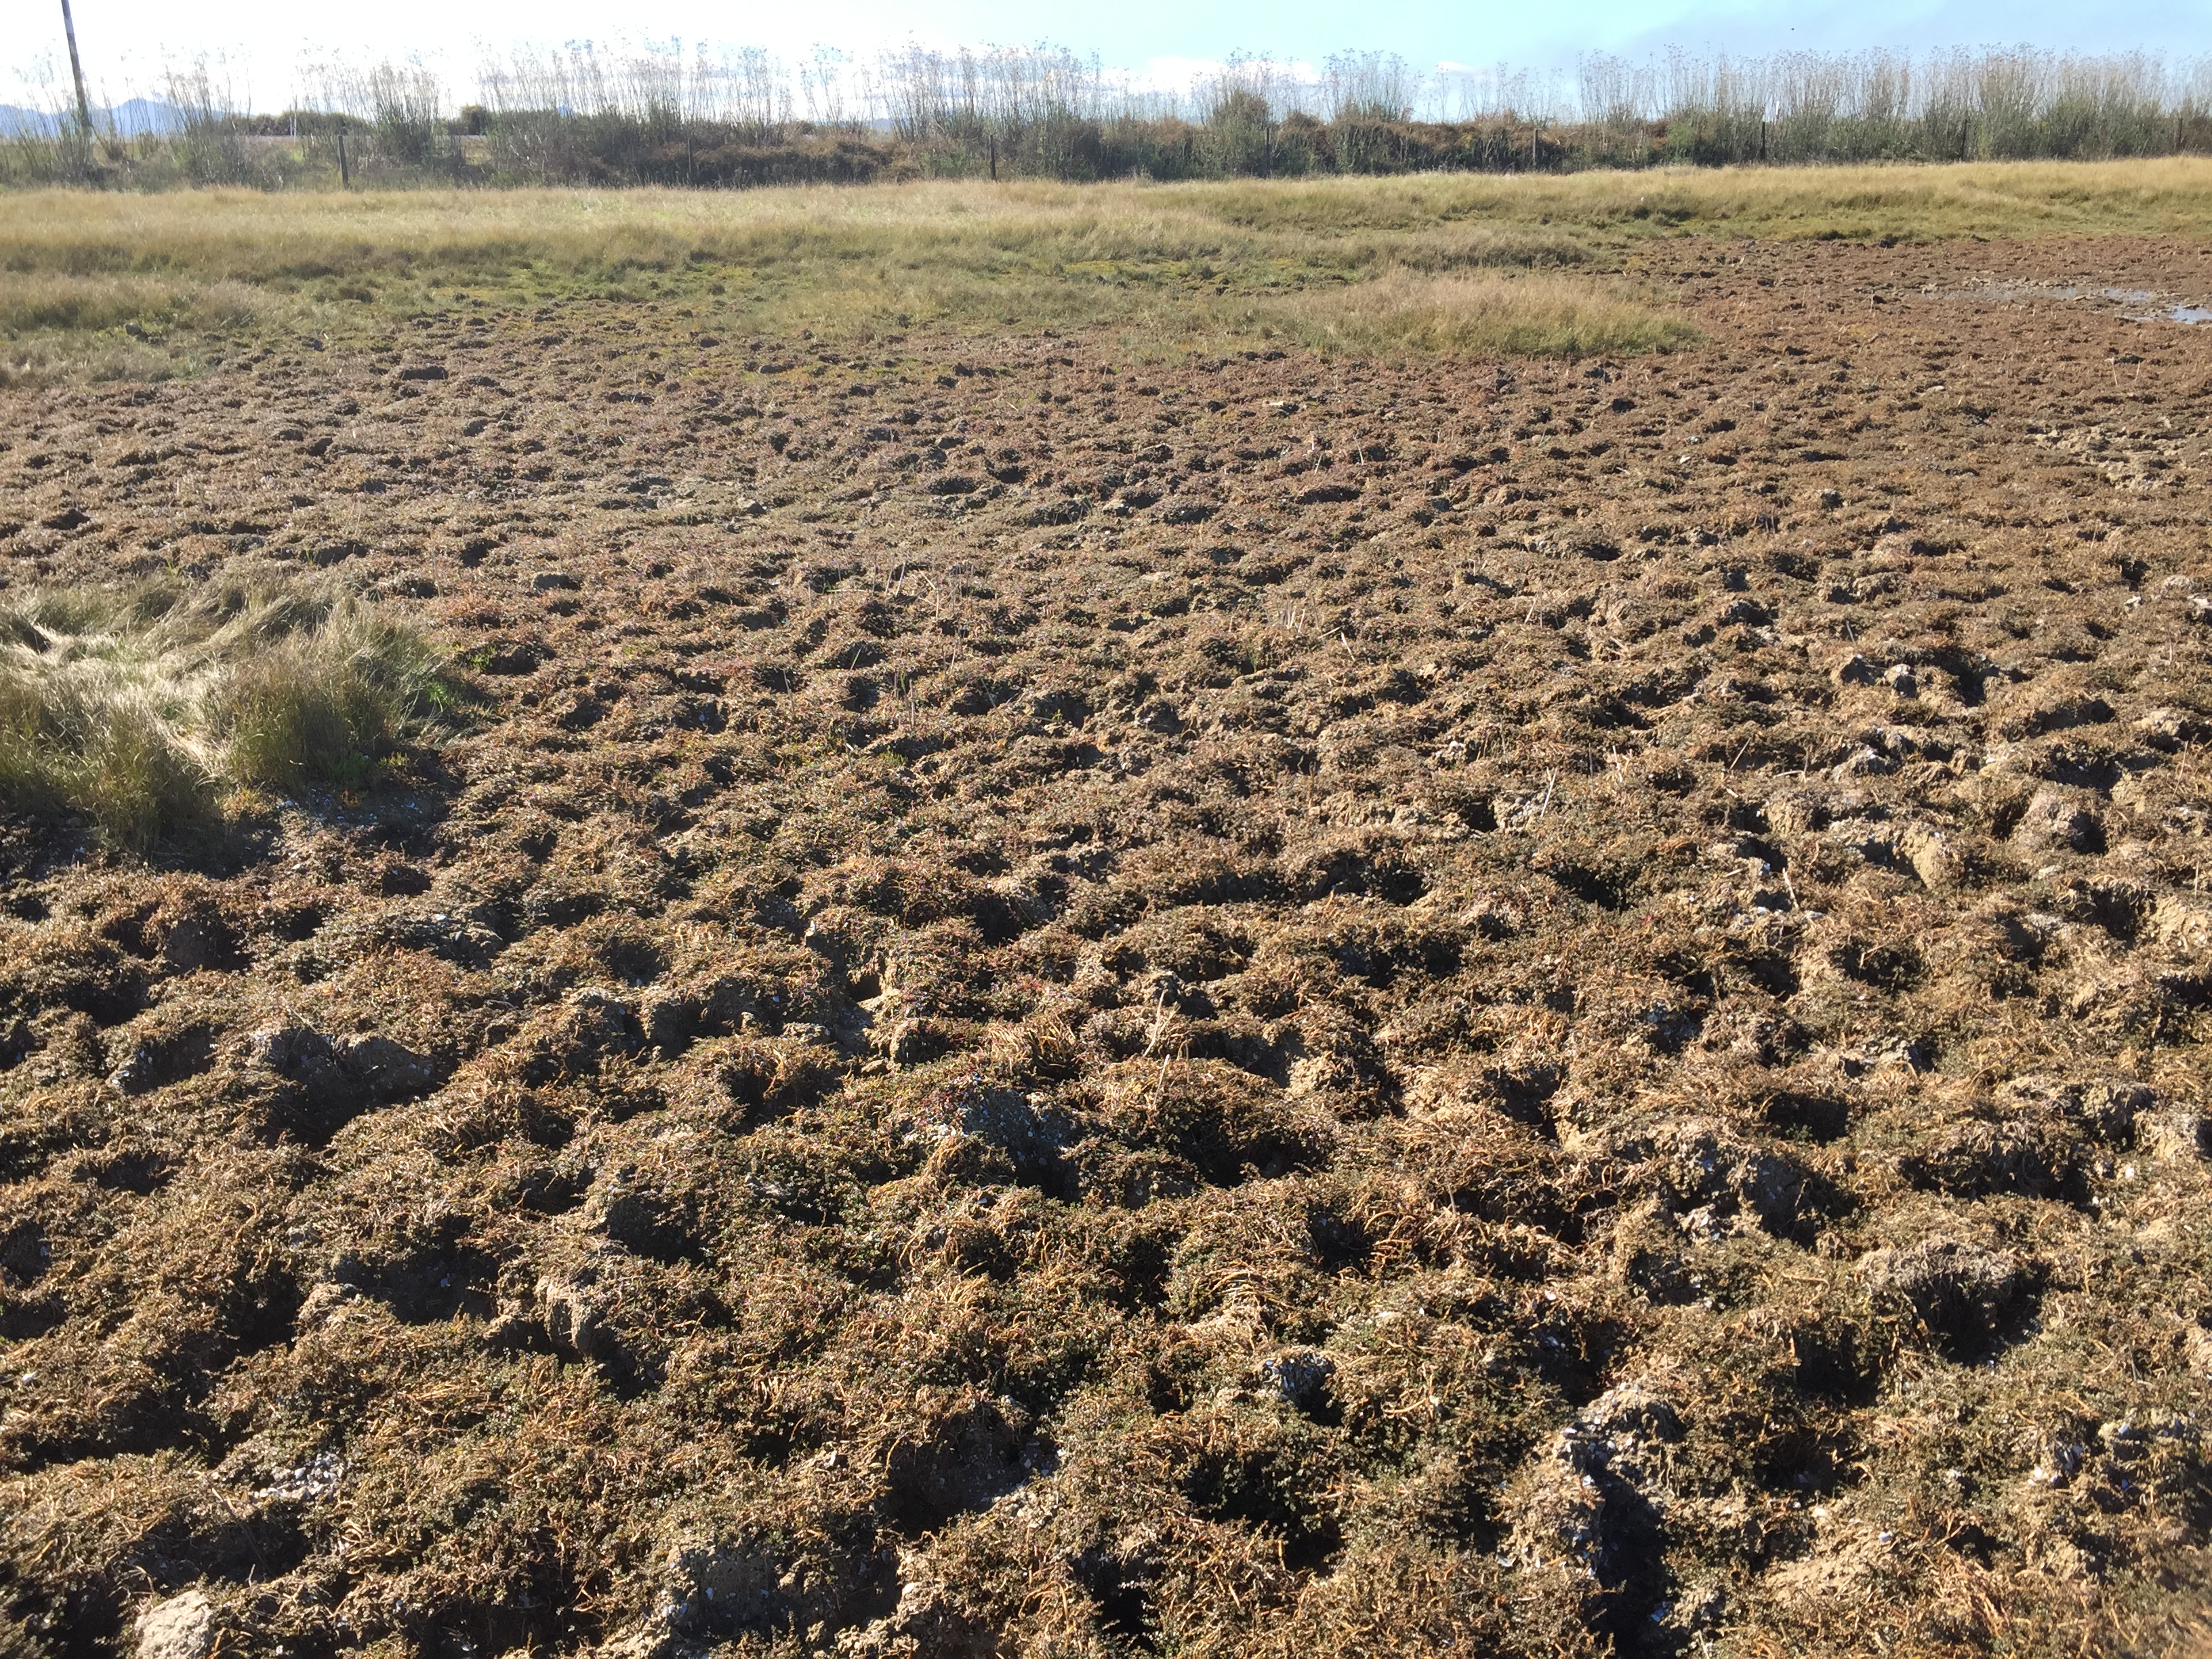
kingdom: Plantae
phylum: Tracheophyta
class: Magnoliopsida
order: Lamiales
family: Phrymaceae
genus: Thyridia
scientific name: Thyridia repens
